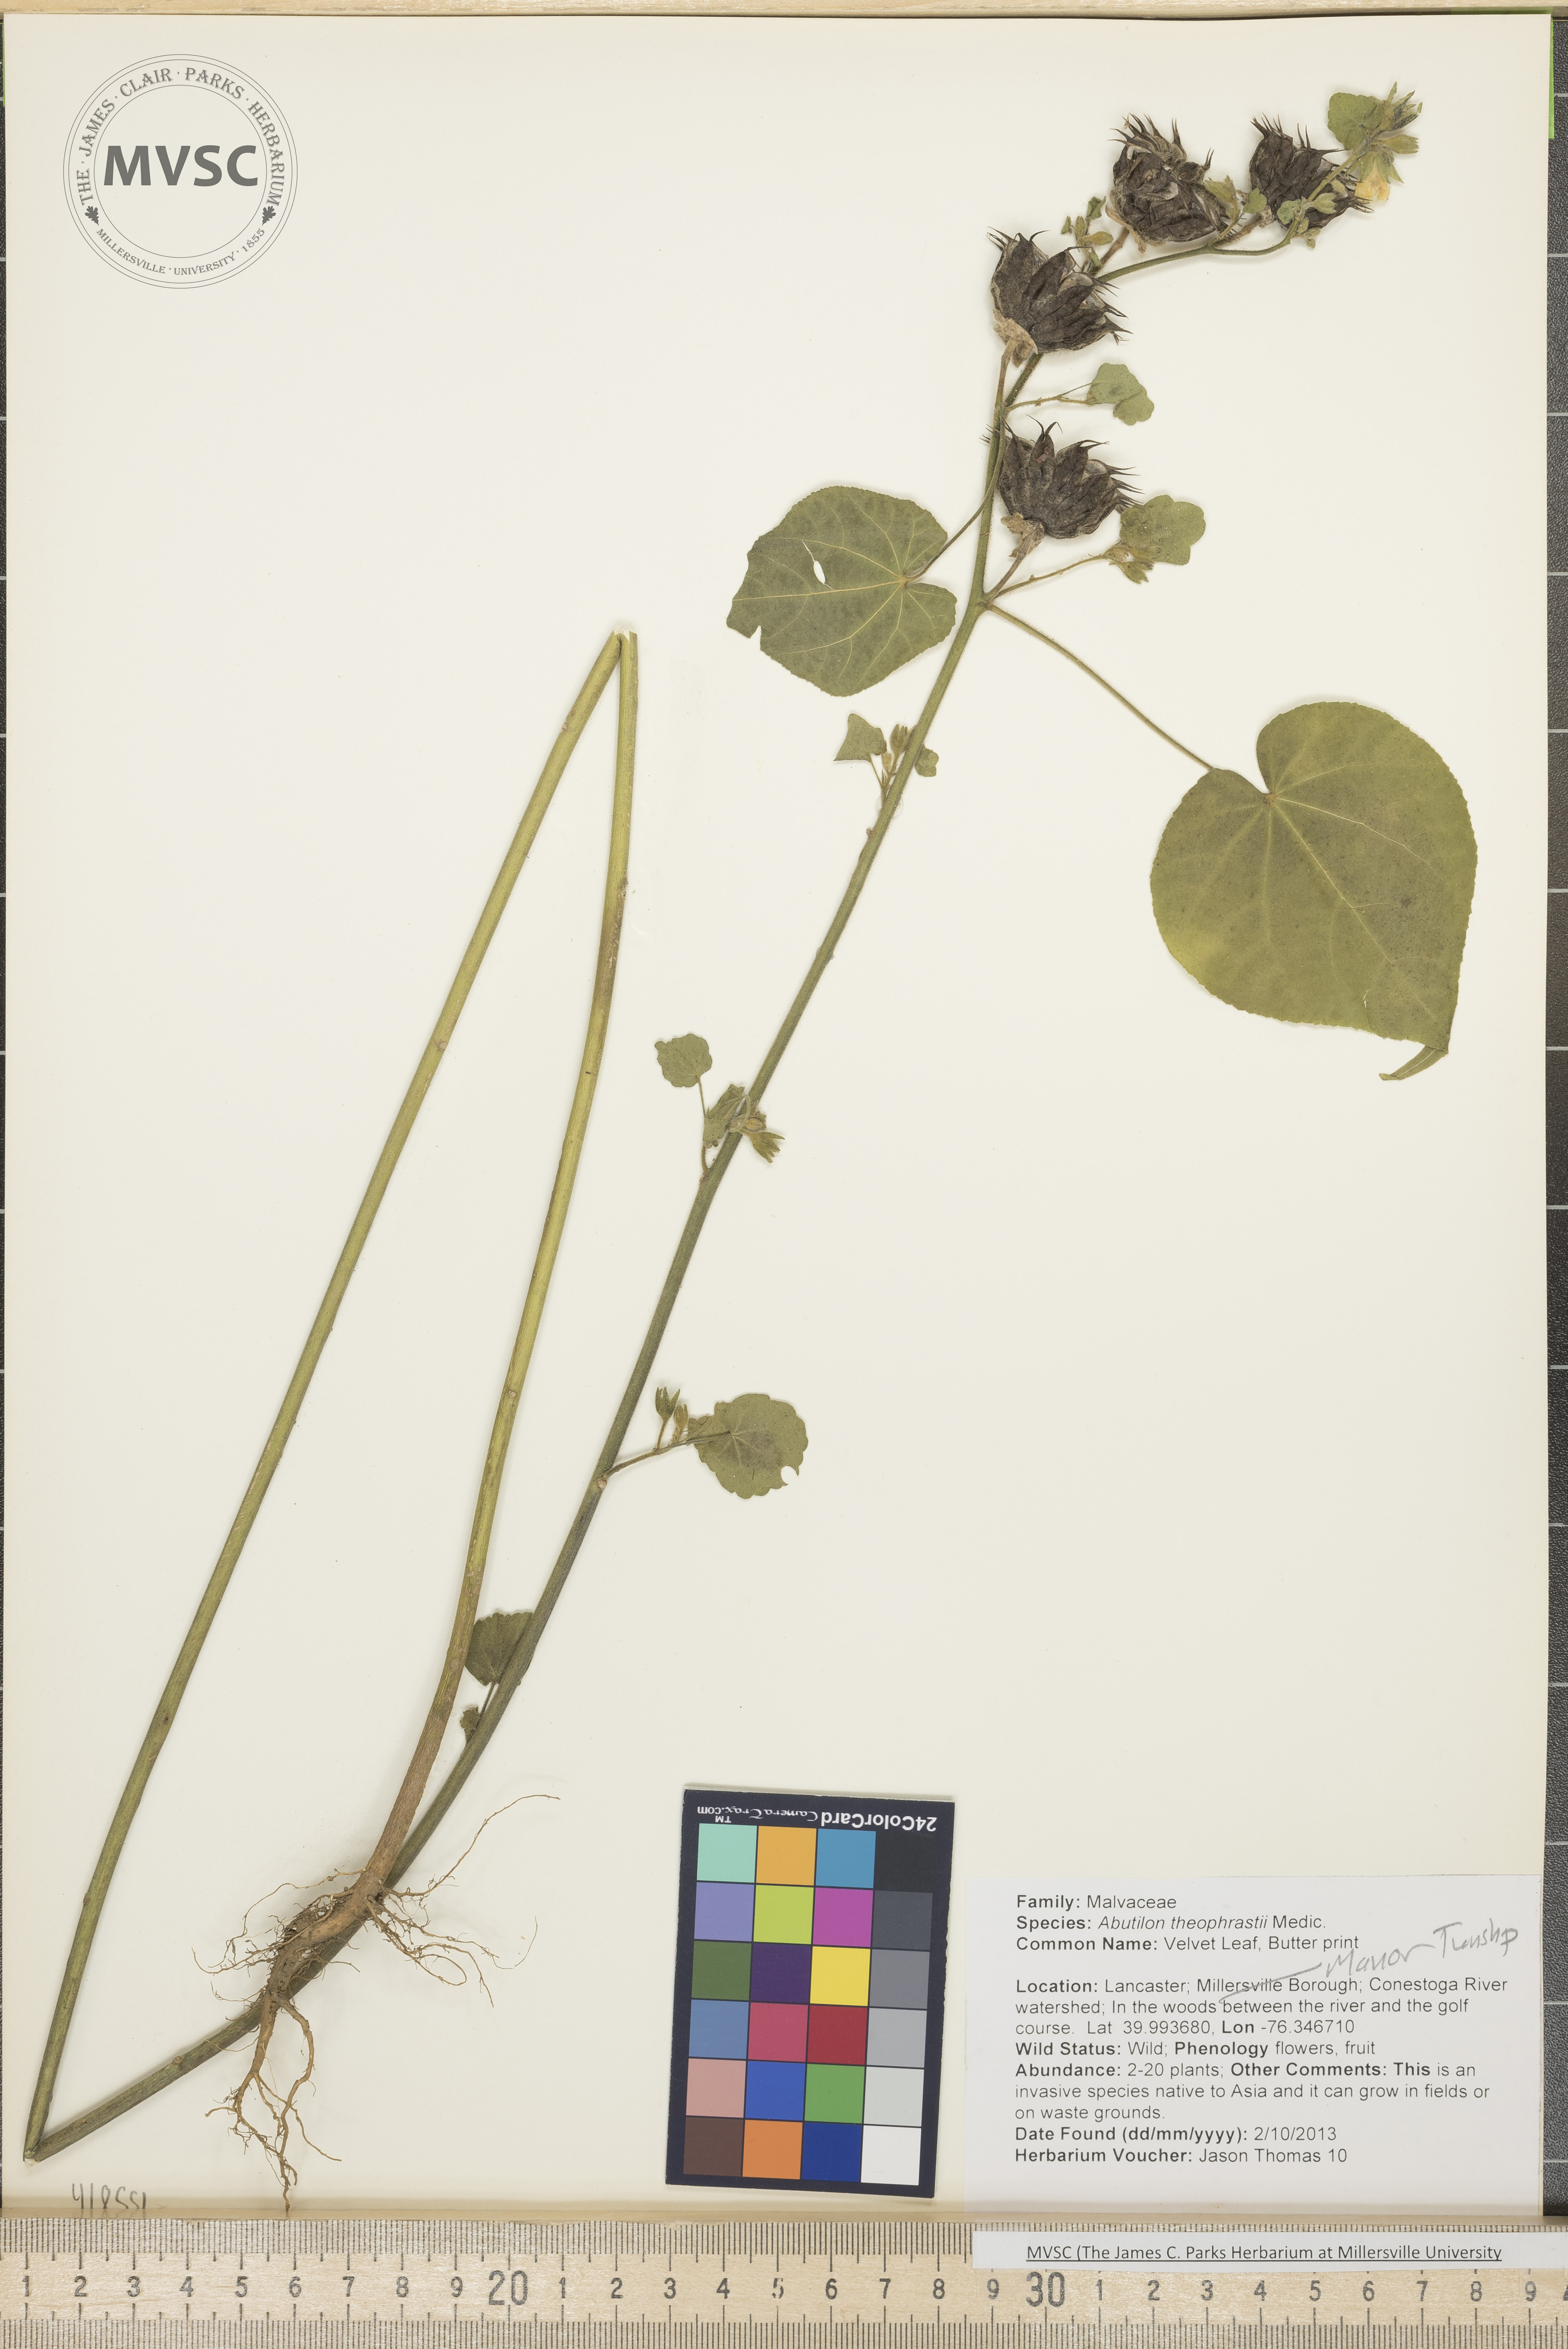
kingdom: Plantae
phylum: Tracheophyta
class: Magnoliopsida
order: Malvales
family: Malvaceae
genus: Abutilon
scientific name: Abutilon theophrasti
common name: Velvet leaf
